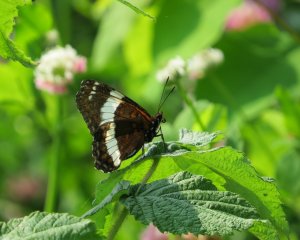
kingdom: Animalia
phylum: Arthropoda
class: Insecta
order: Lepidoptera
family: Nymphalidae
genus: Limenitis
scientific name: Limenitis arthemis
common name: Red-spotted Admiral
